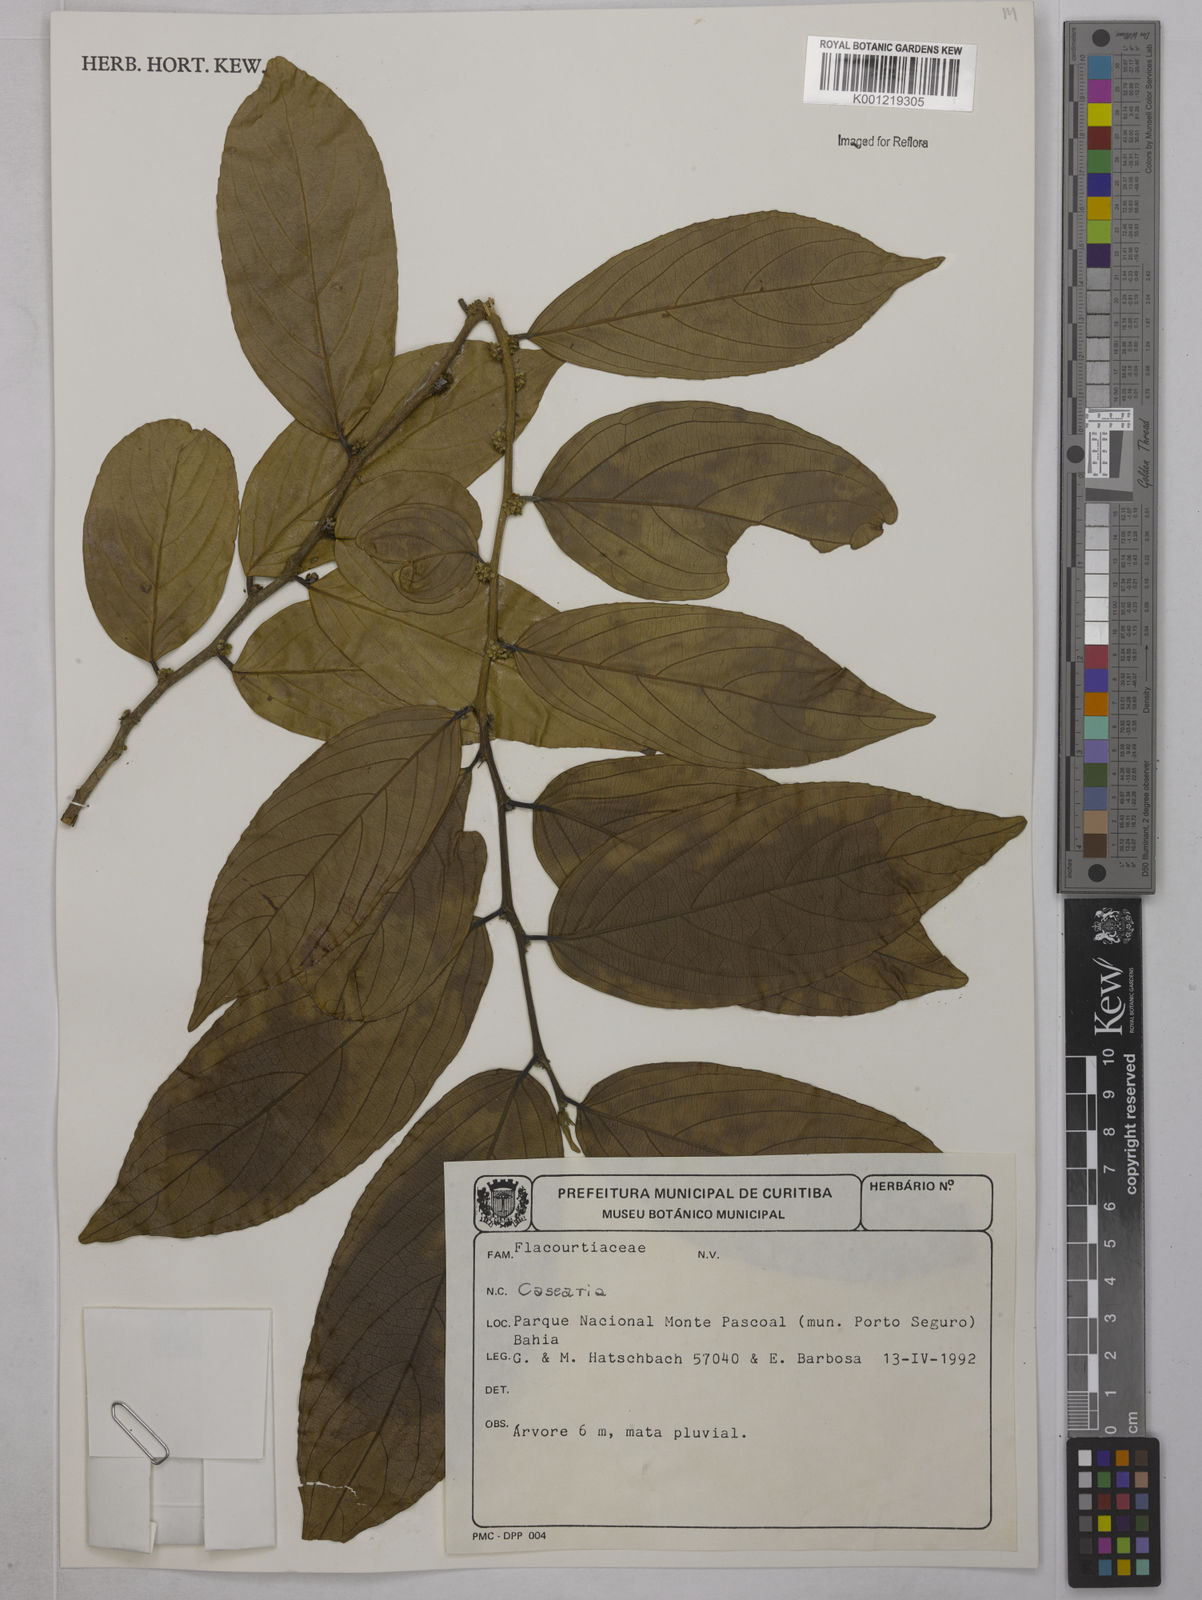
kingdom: Plantae
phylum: Tracheophyta
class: Magnoliopsida
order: Malpighiales
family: Salicaceae
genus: Casearia
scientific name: Casearia
